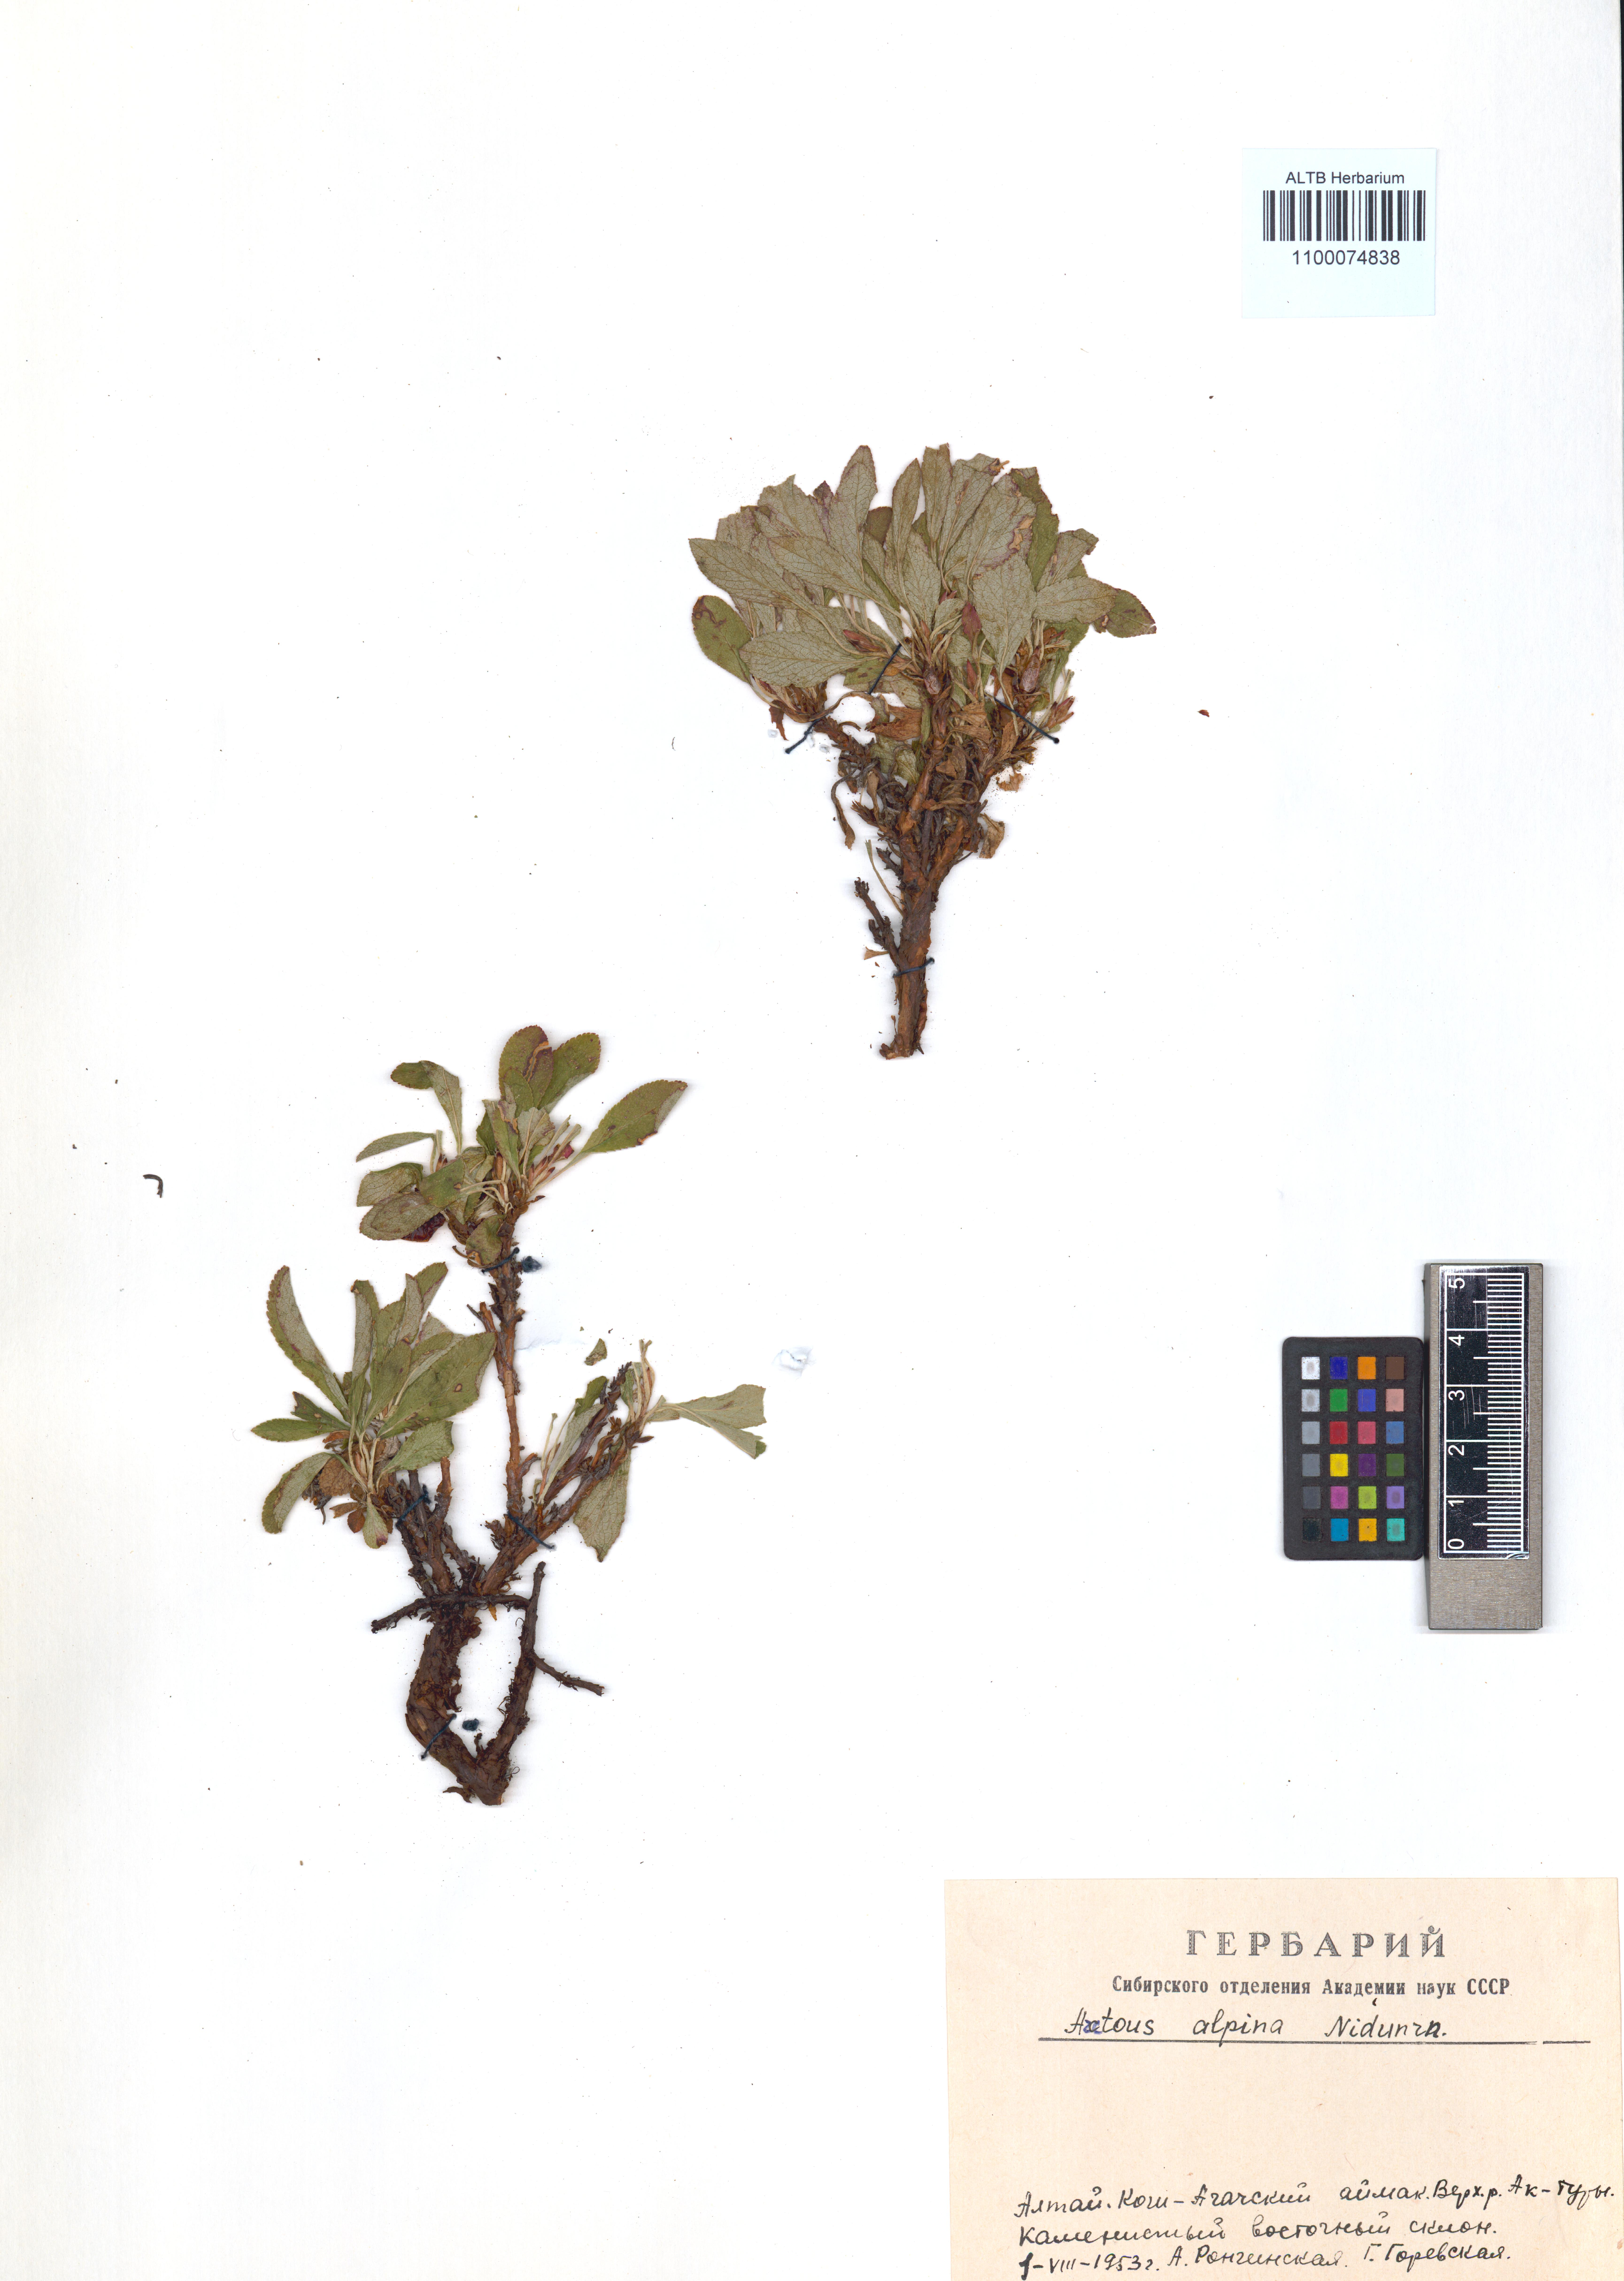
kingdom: Plantae
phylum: Tracheophyta
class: Magnoliopsida
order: Ericales
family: Ericaceae
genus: Arctostaphylos
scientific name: Arctostaphylos alpinus
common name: Alpine bearberry
